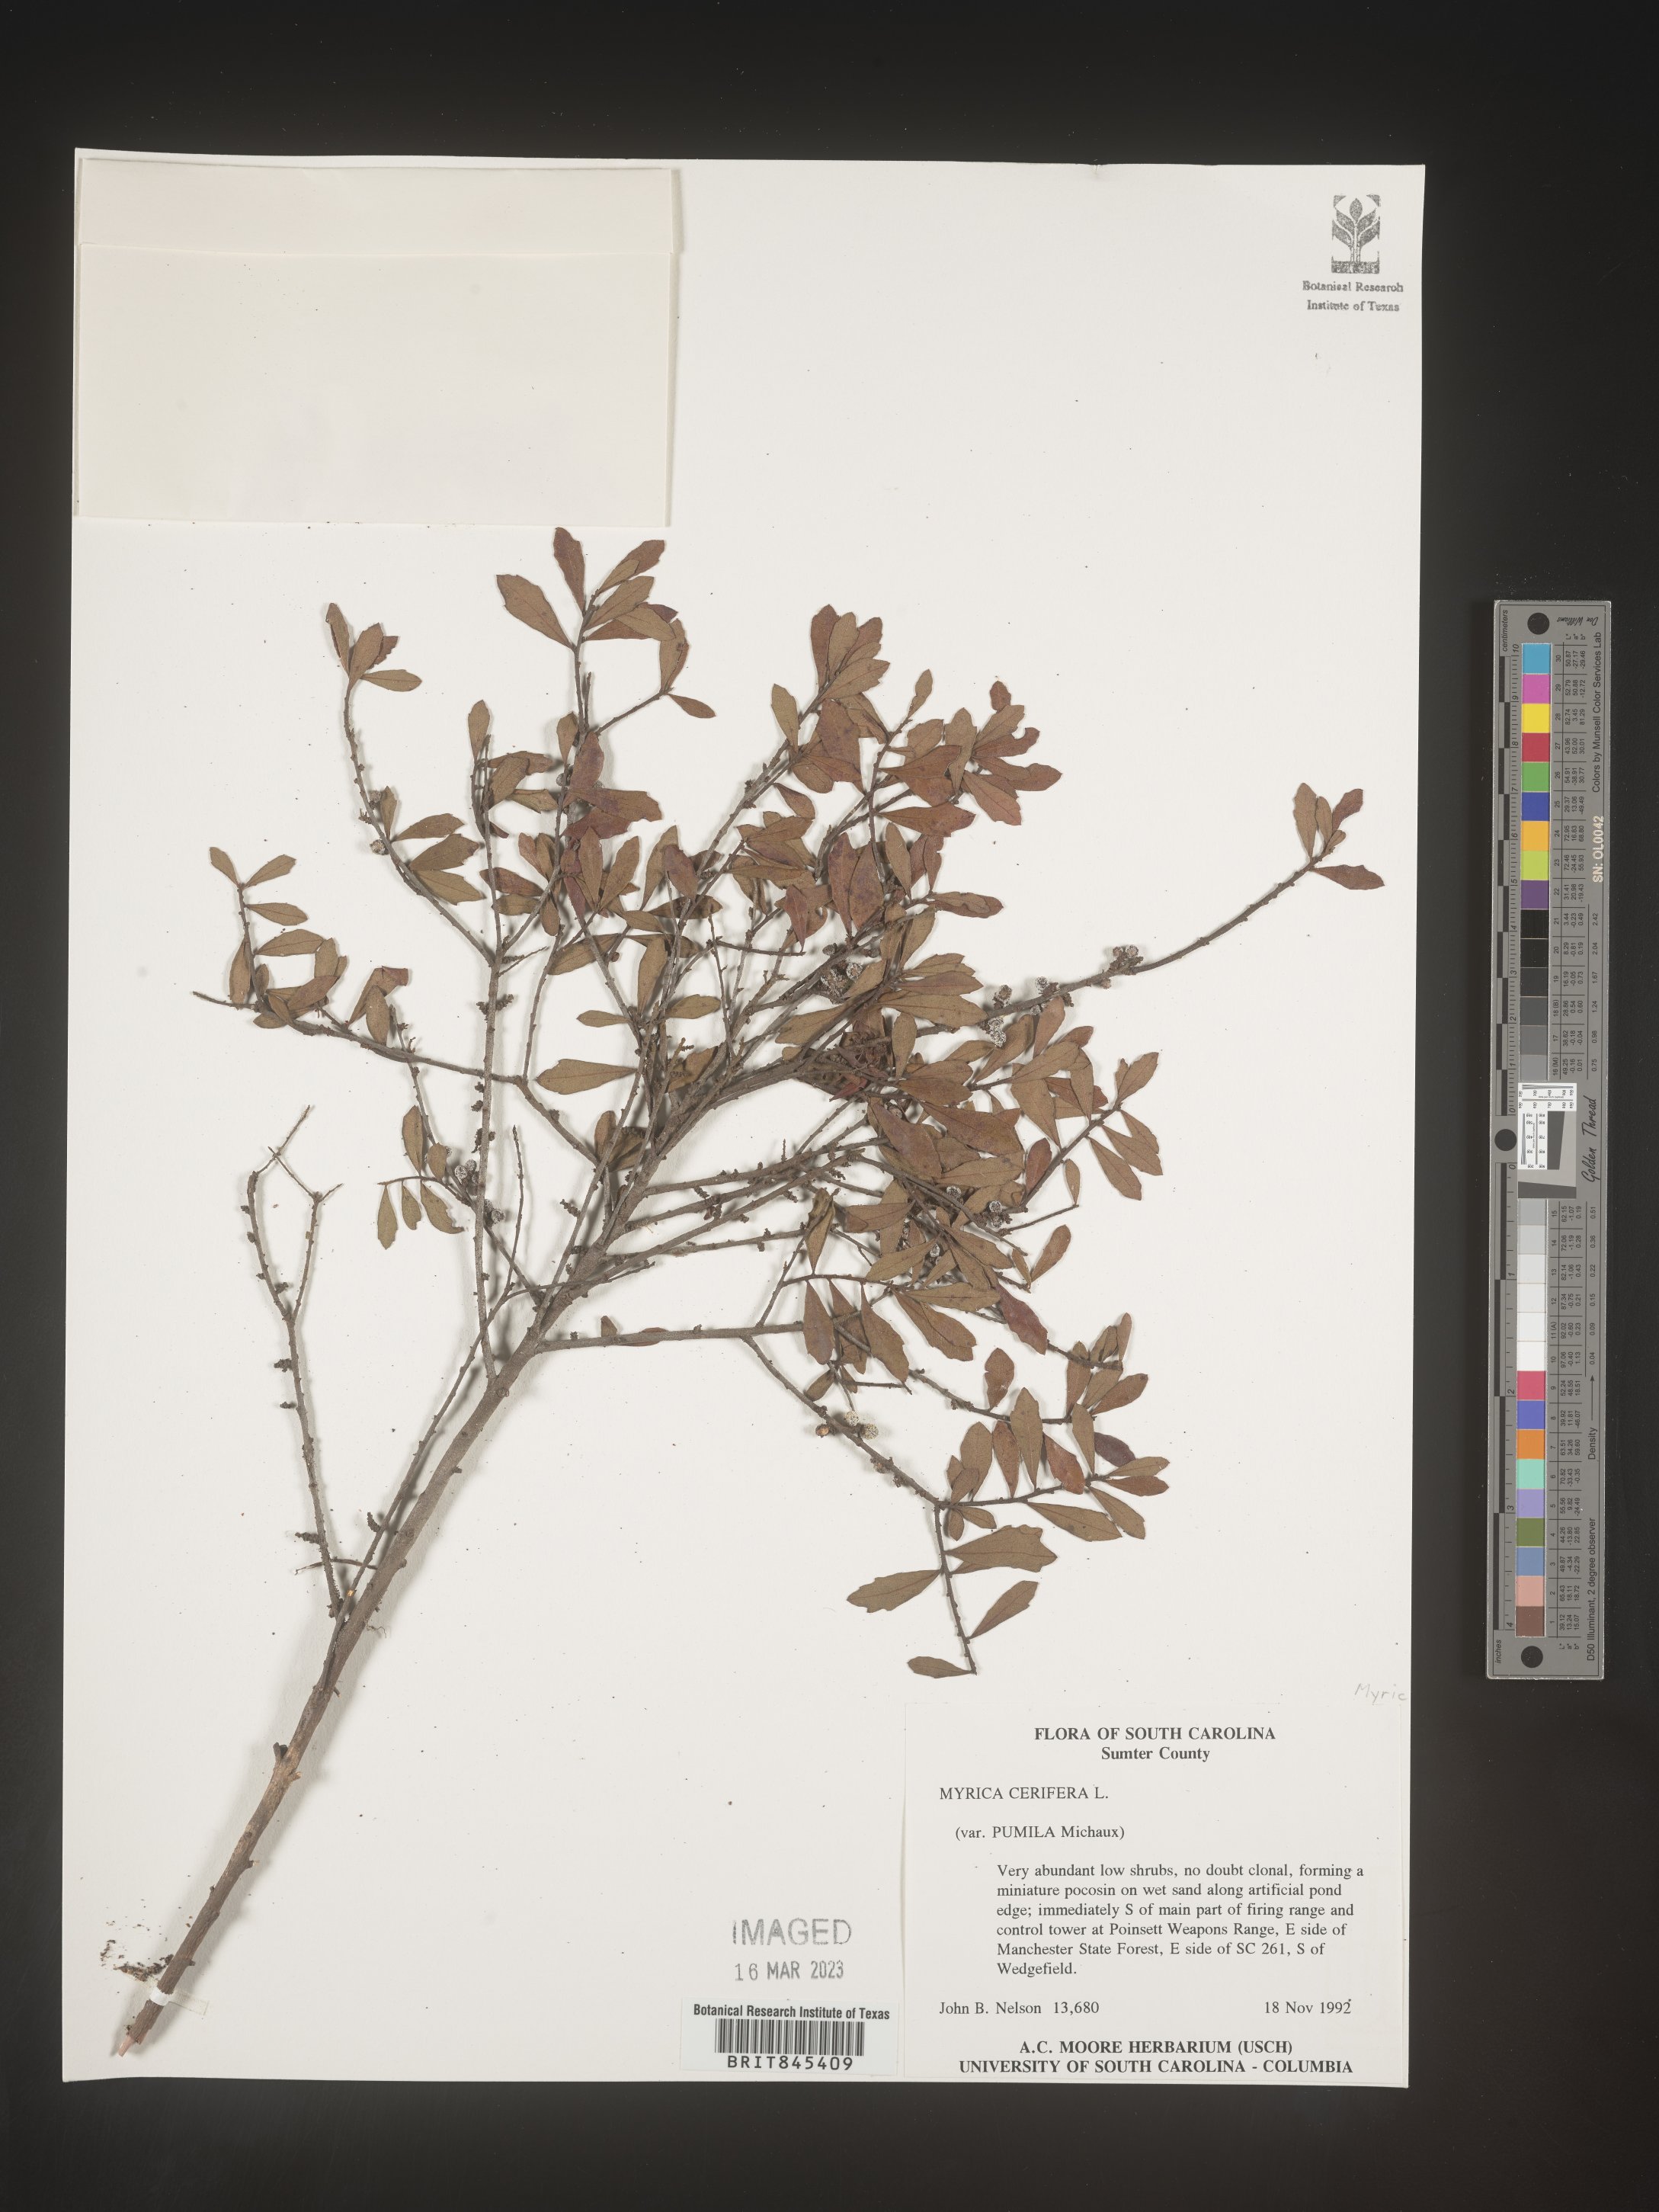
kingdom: Plantae
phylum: Tracheophyta
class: Magnoliopsida
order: Fagales
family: Myricaceae
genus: Morella
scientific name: Morella cerifera
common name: Wax myrtle
